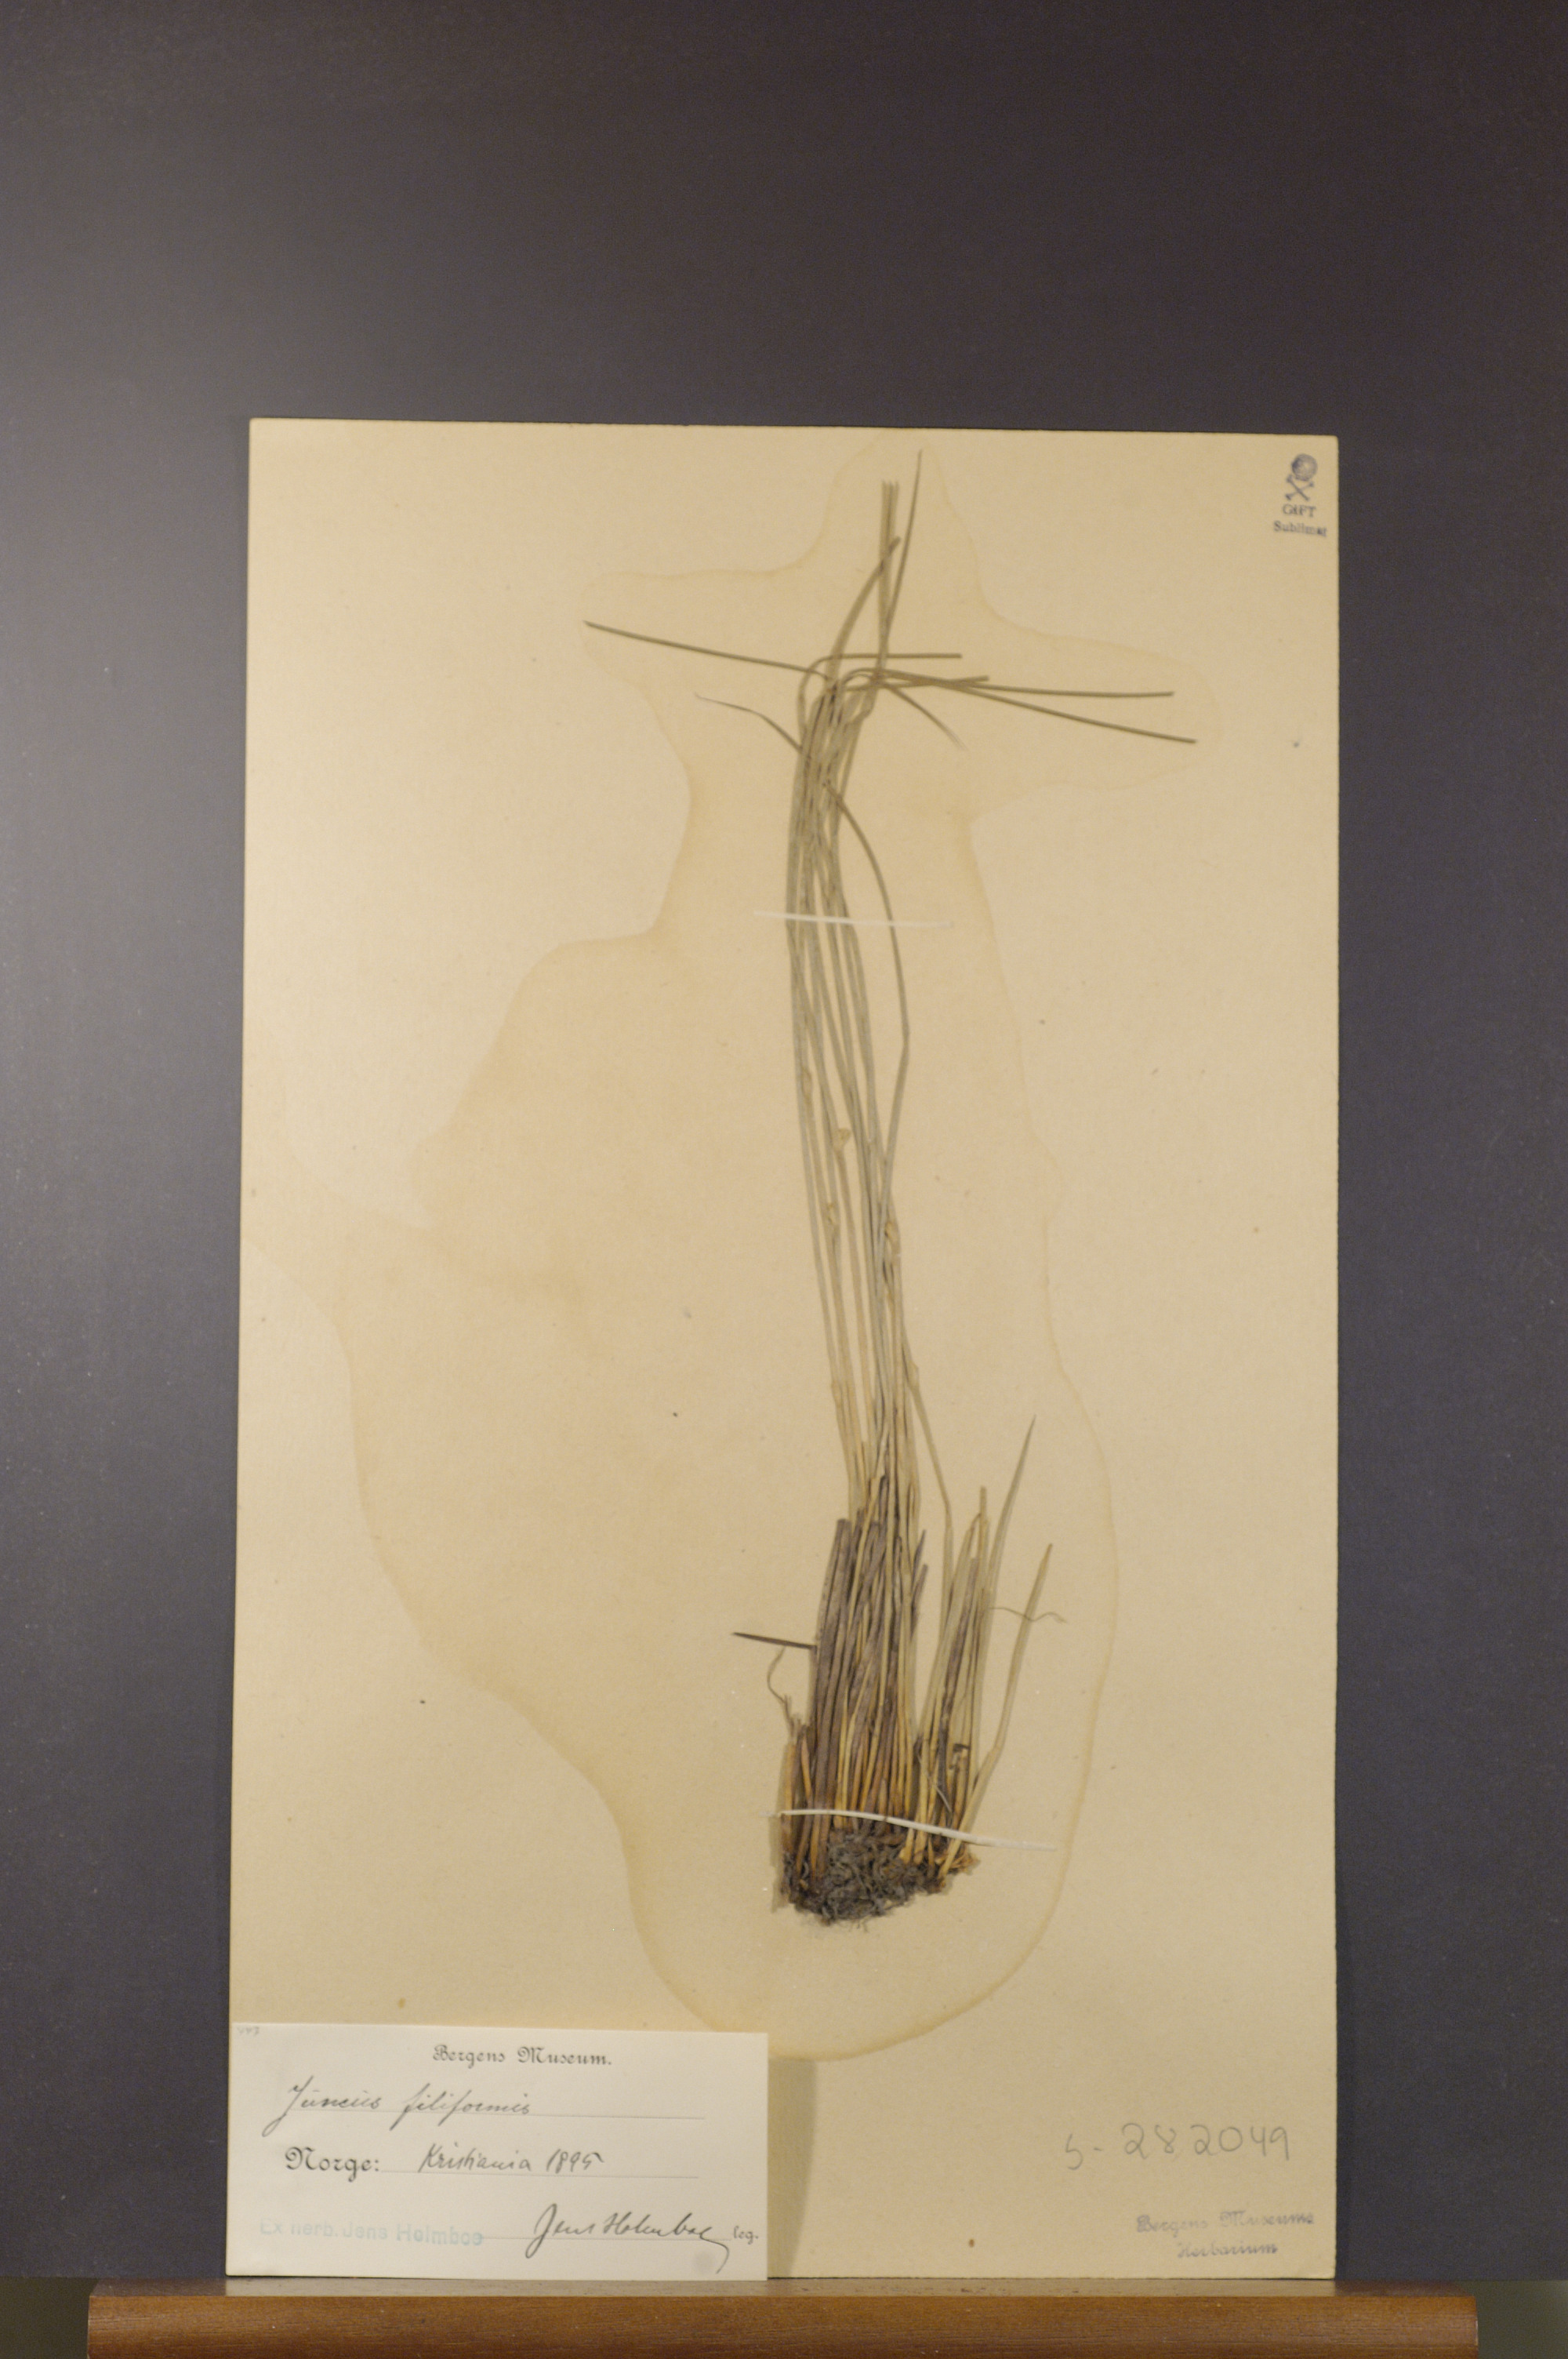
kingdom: Plantae
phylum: Tracheophyta
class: Liliopsida
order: Poales
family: Juncaceae
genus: Juncus
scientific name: Juncus filiformis
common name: Thread rush
